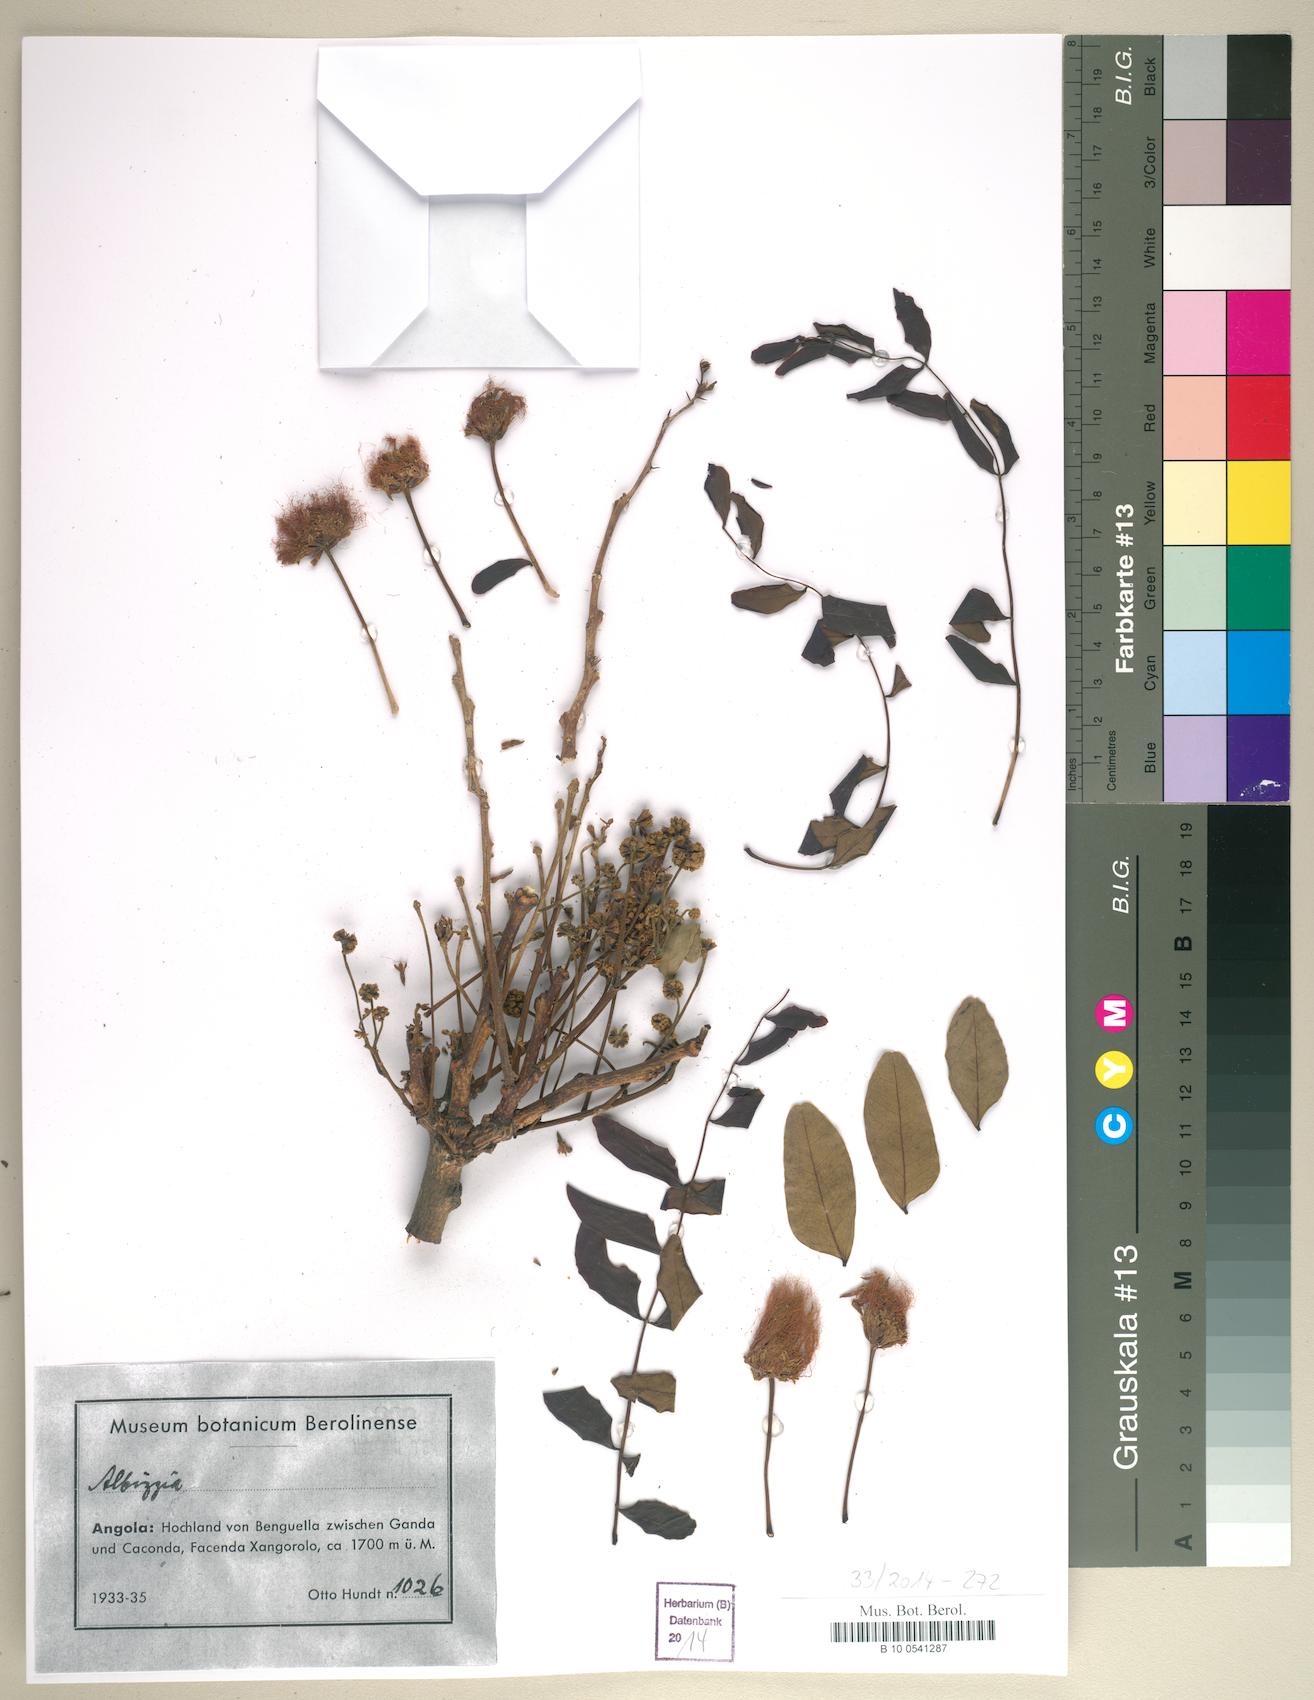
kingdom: Plantae
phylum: Tracheophyta
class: Magnoliopsida
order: Fabales
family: Fabaceae
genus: Albizia
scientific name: Albizia
